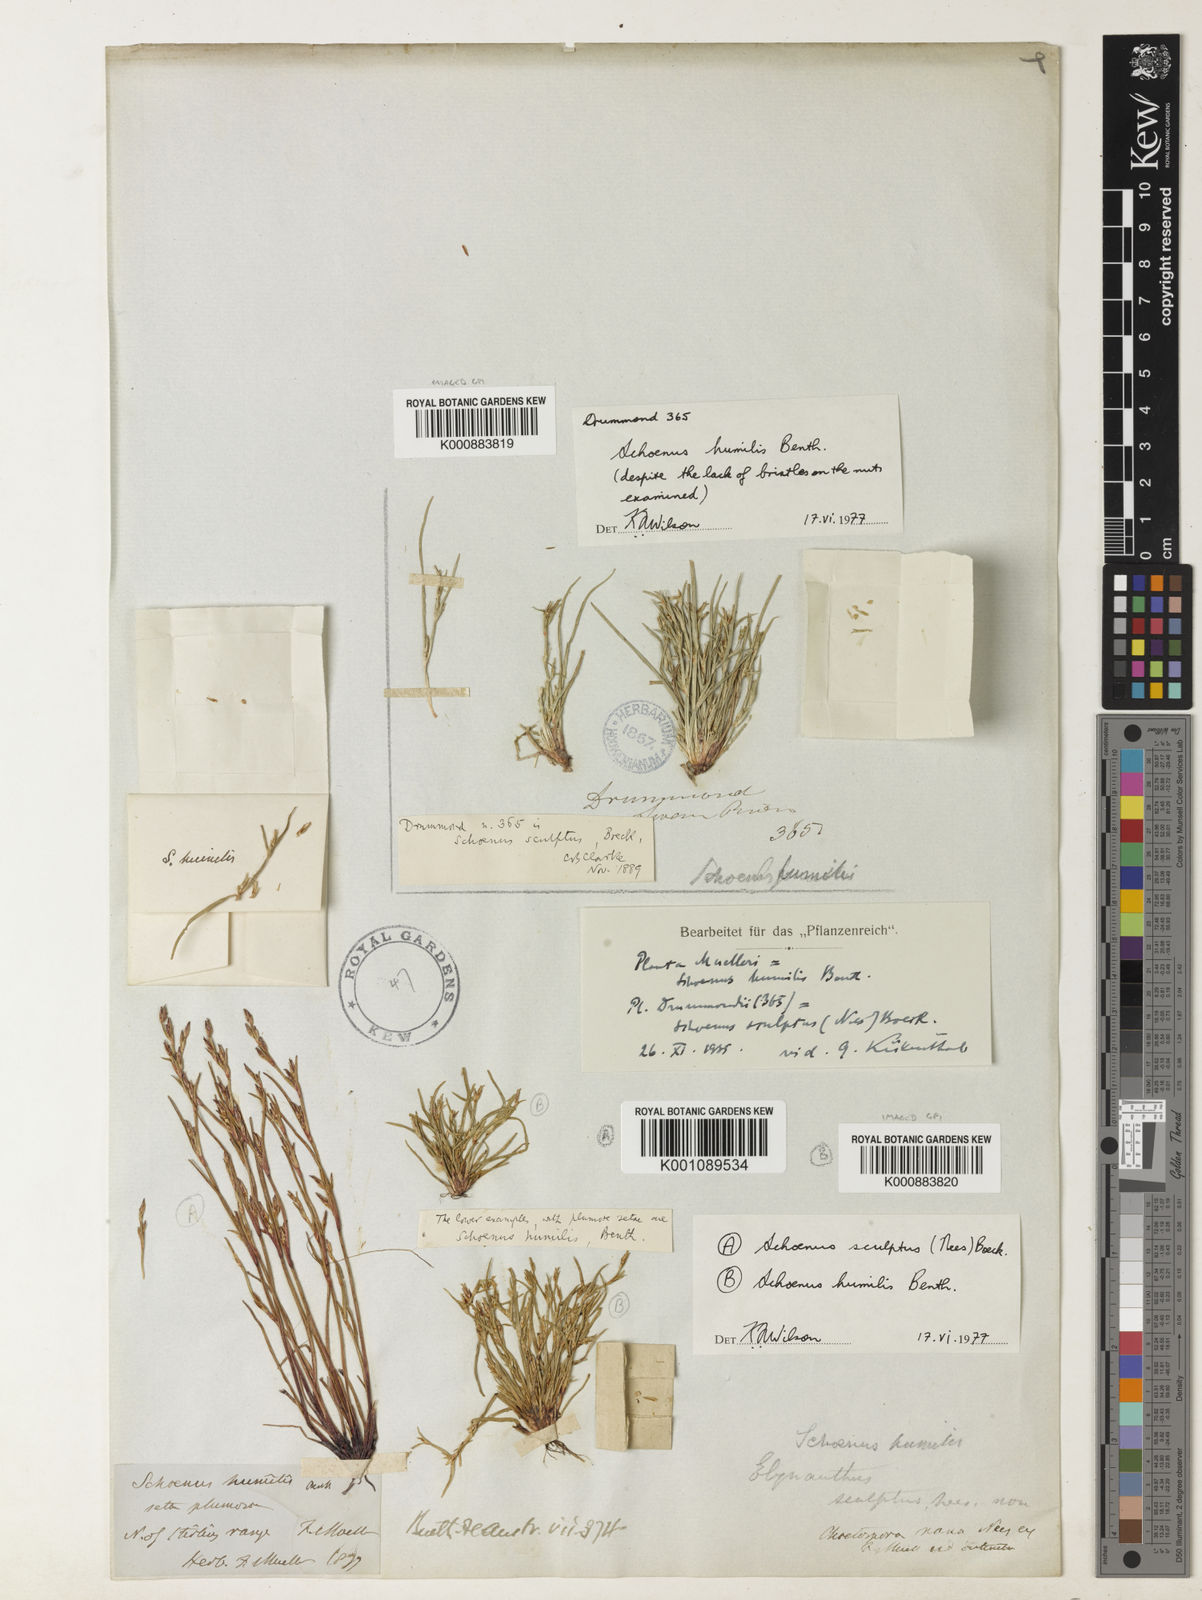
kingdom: Plantae
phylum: Tracheophyta
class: Liliopsida
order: Poales
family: Cyperaceae
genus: Schoenus
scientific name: Schoenus humilis
